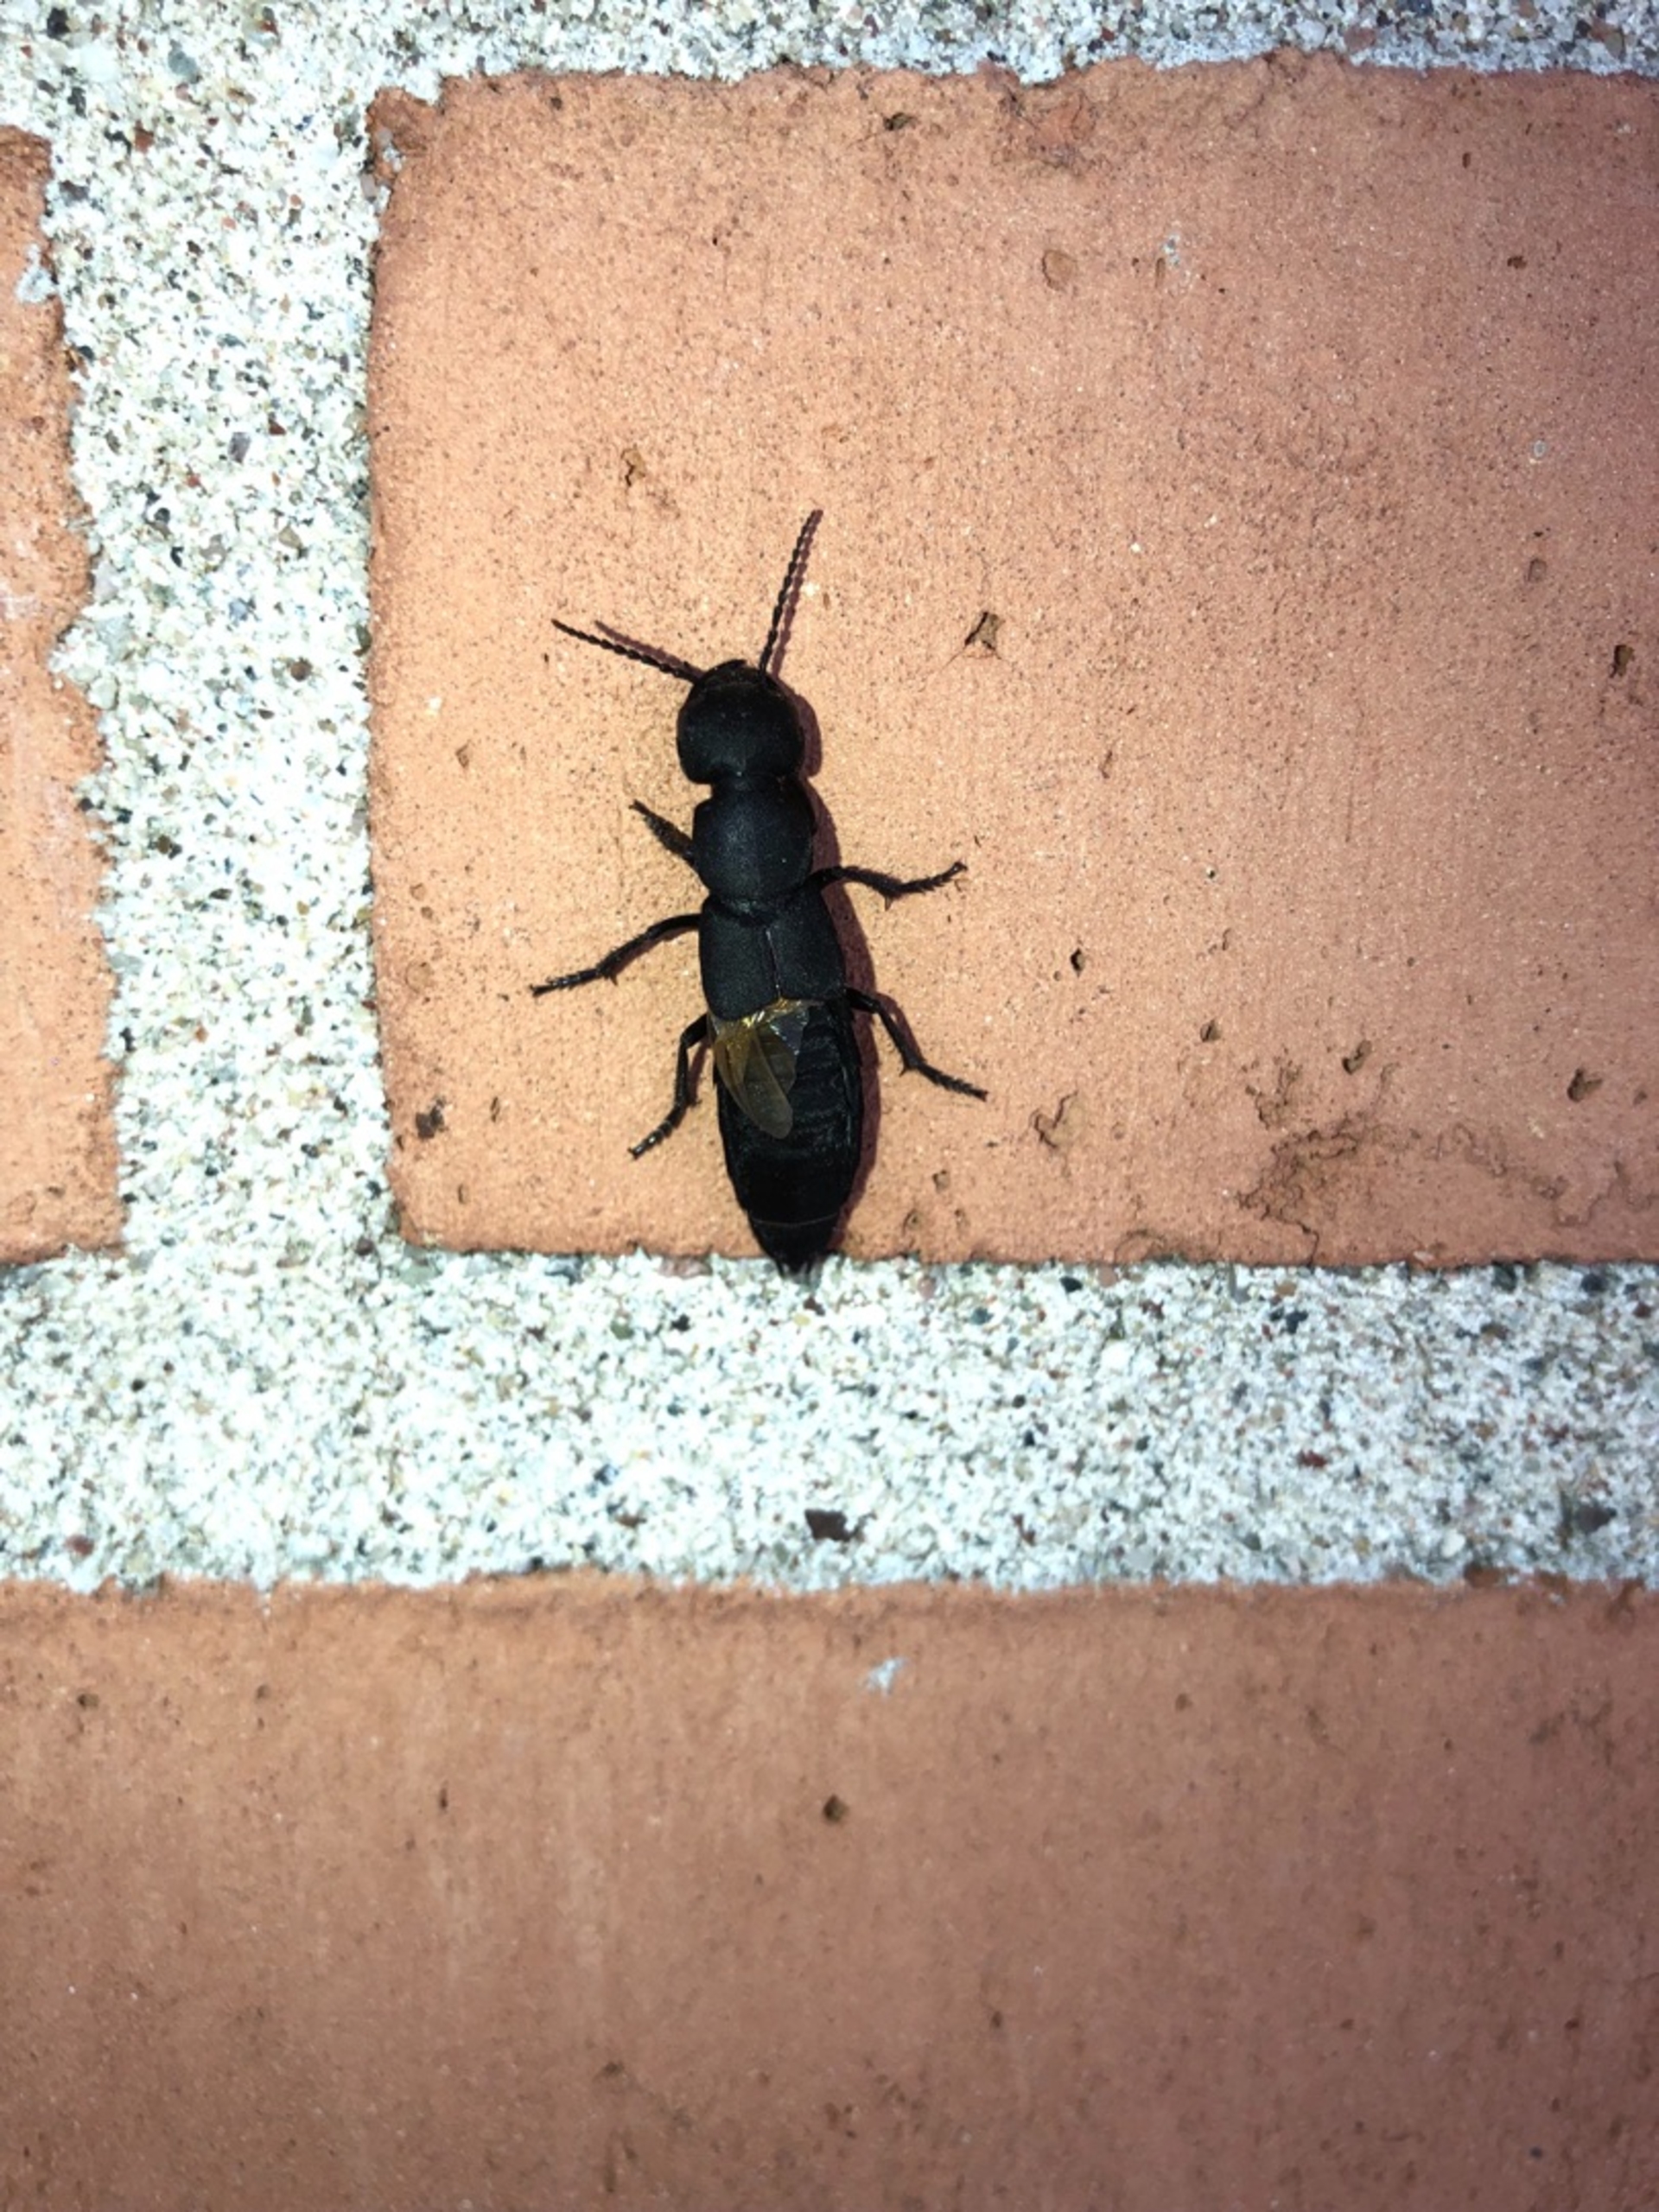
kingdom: Animalia
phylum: Arthropoda
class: Insecta
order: Coleoptera
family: Staphylinidae
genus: Ocypus
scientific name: Ocypus olens
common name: Stor rovbille
